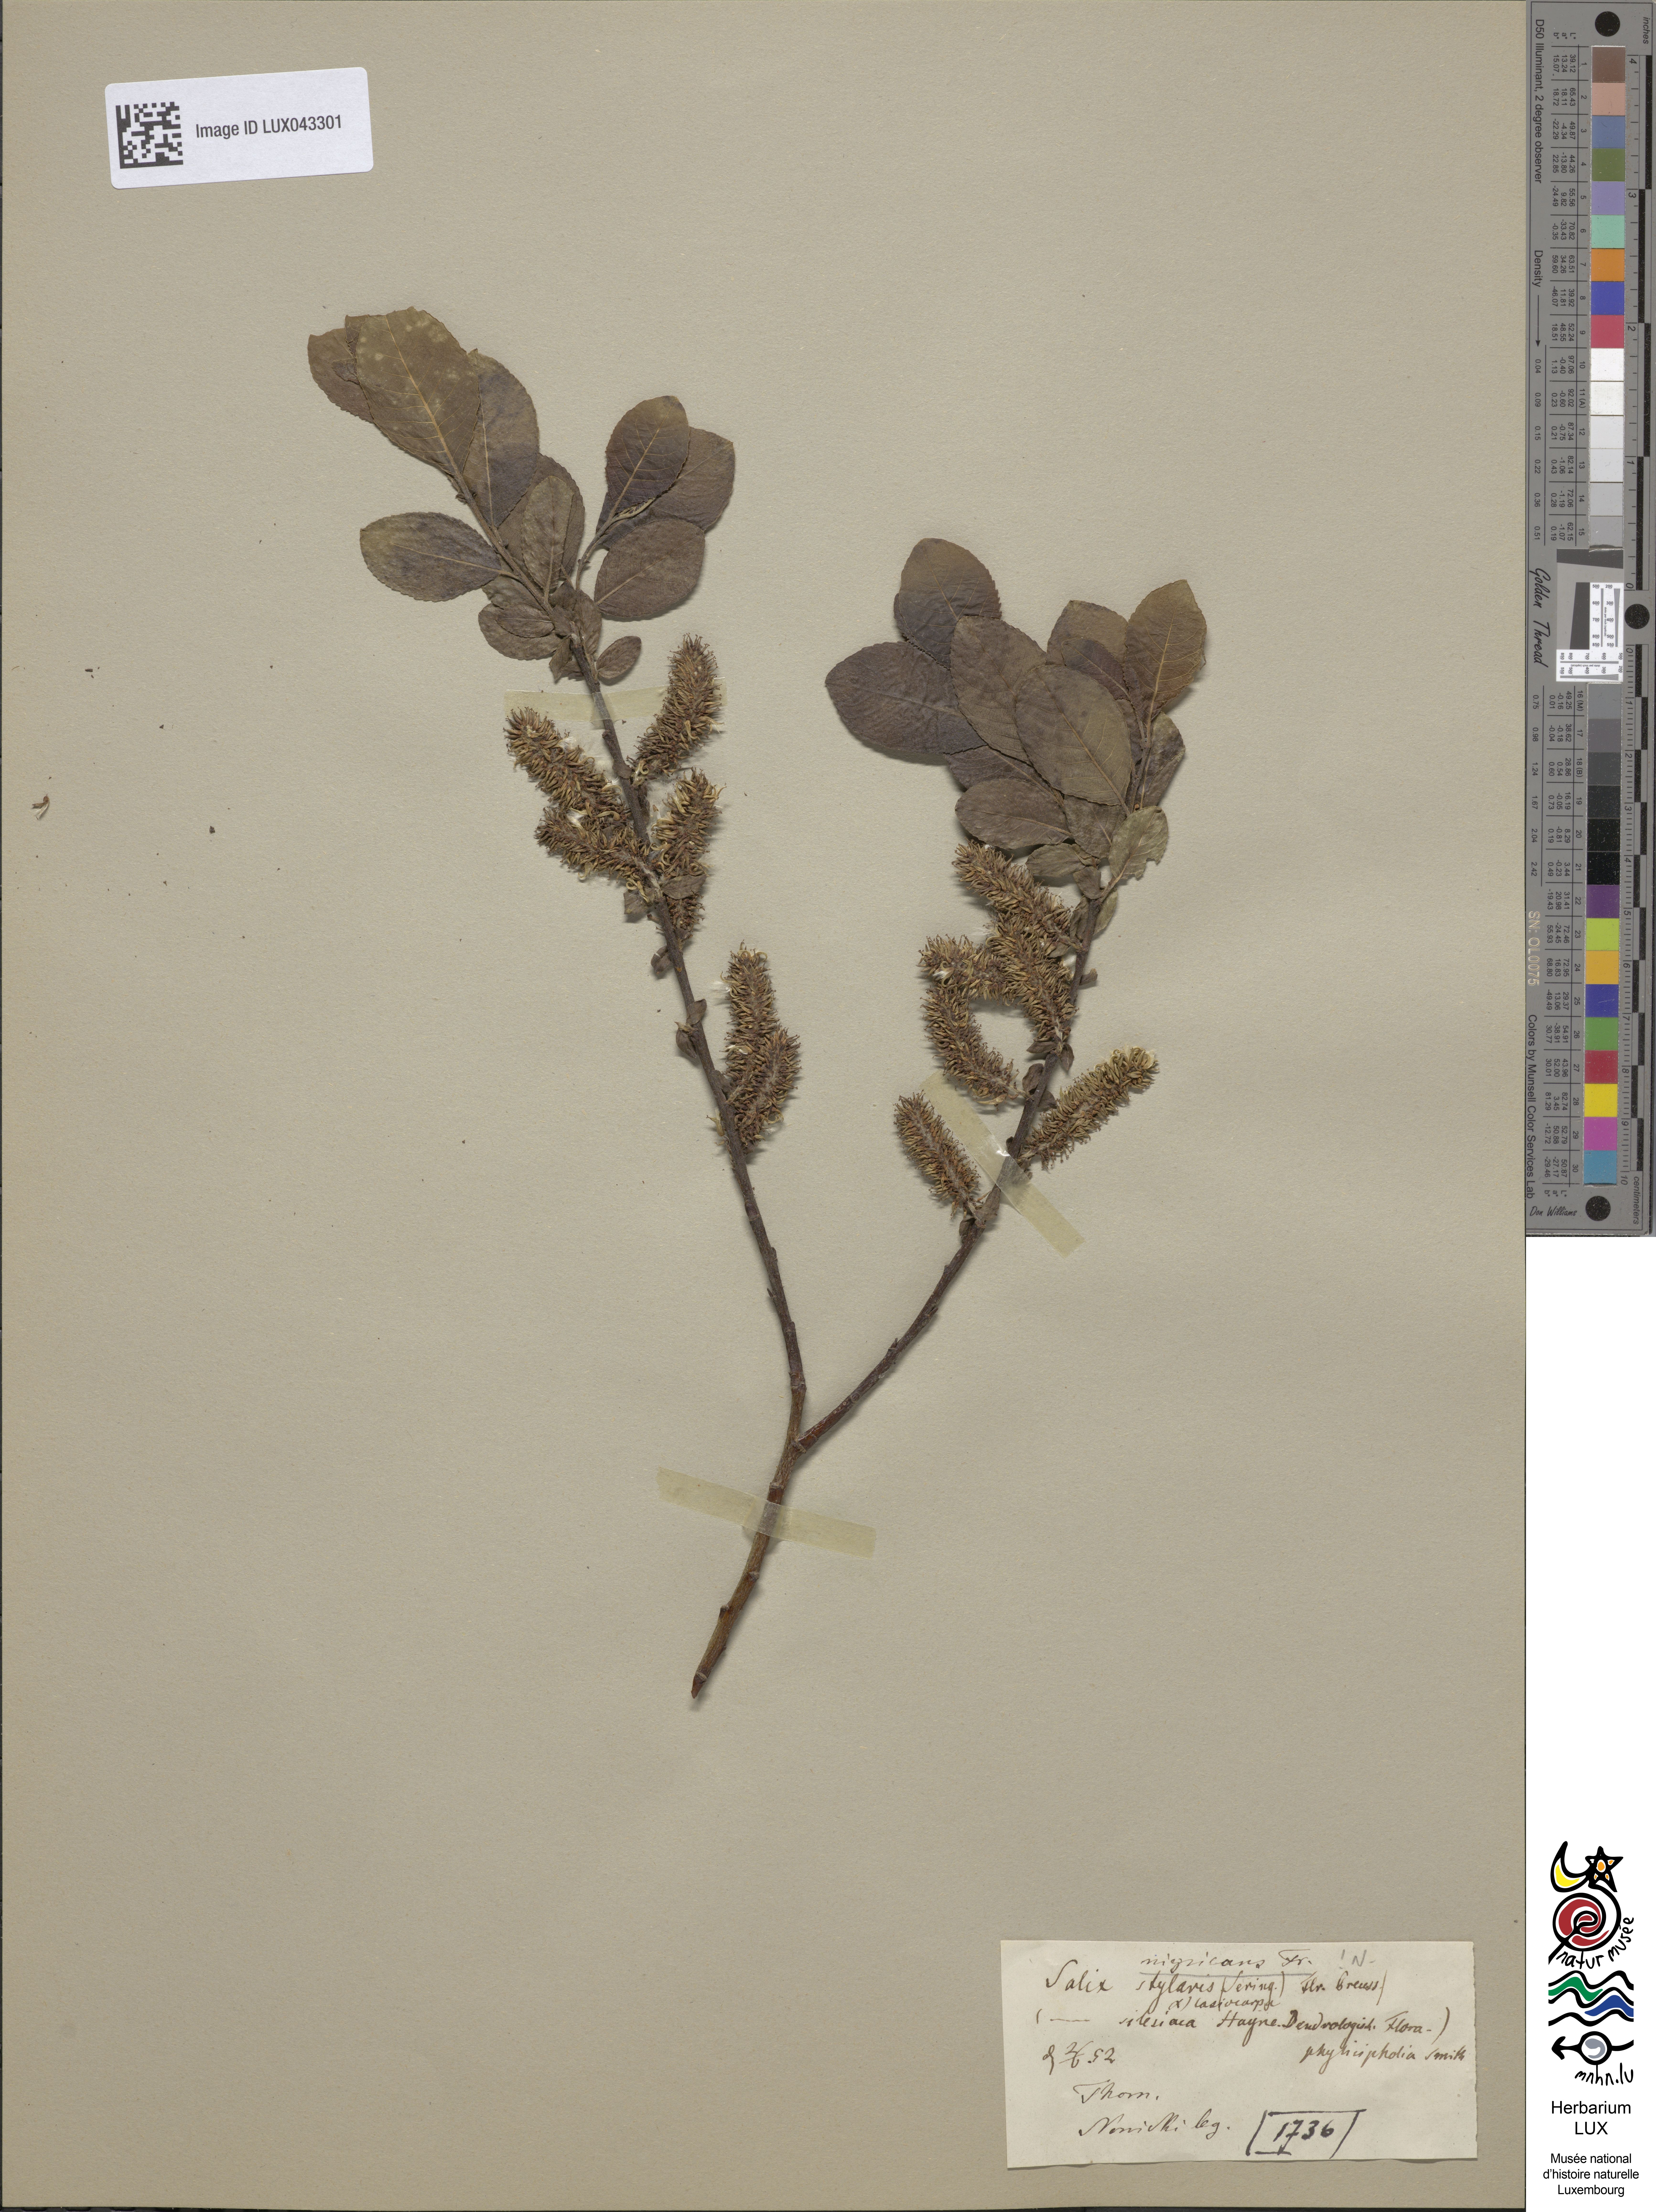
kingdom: Plantae
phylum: Tracheophyta
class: Magnoliopsida
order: Malpighiales
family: Salicaceae
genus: Salix
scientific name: Salix myrsinifolia
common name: Dark-leaved willow
